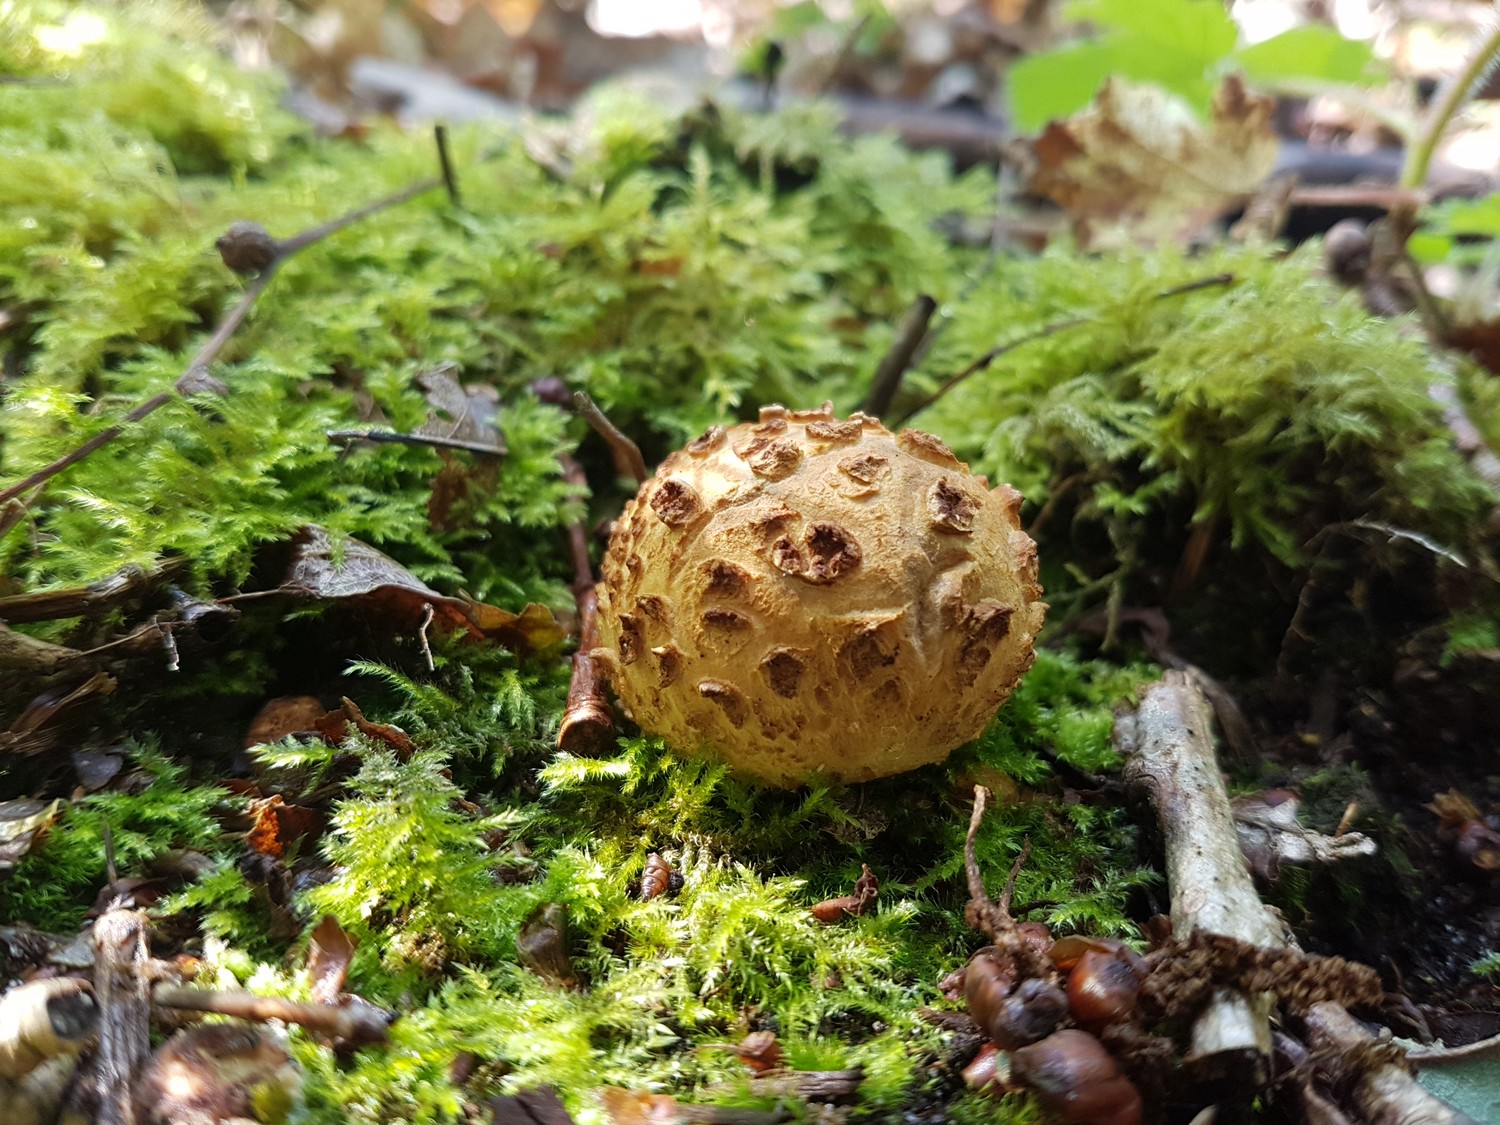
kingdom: Fungi
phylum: Basidiomycota
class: Agaricomycetes
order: Boletales
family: Sclerodermataceae
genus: Scleroderma
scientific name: Scleroderma citrinum
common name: almindelig bruskbold
